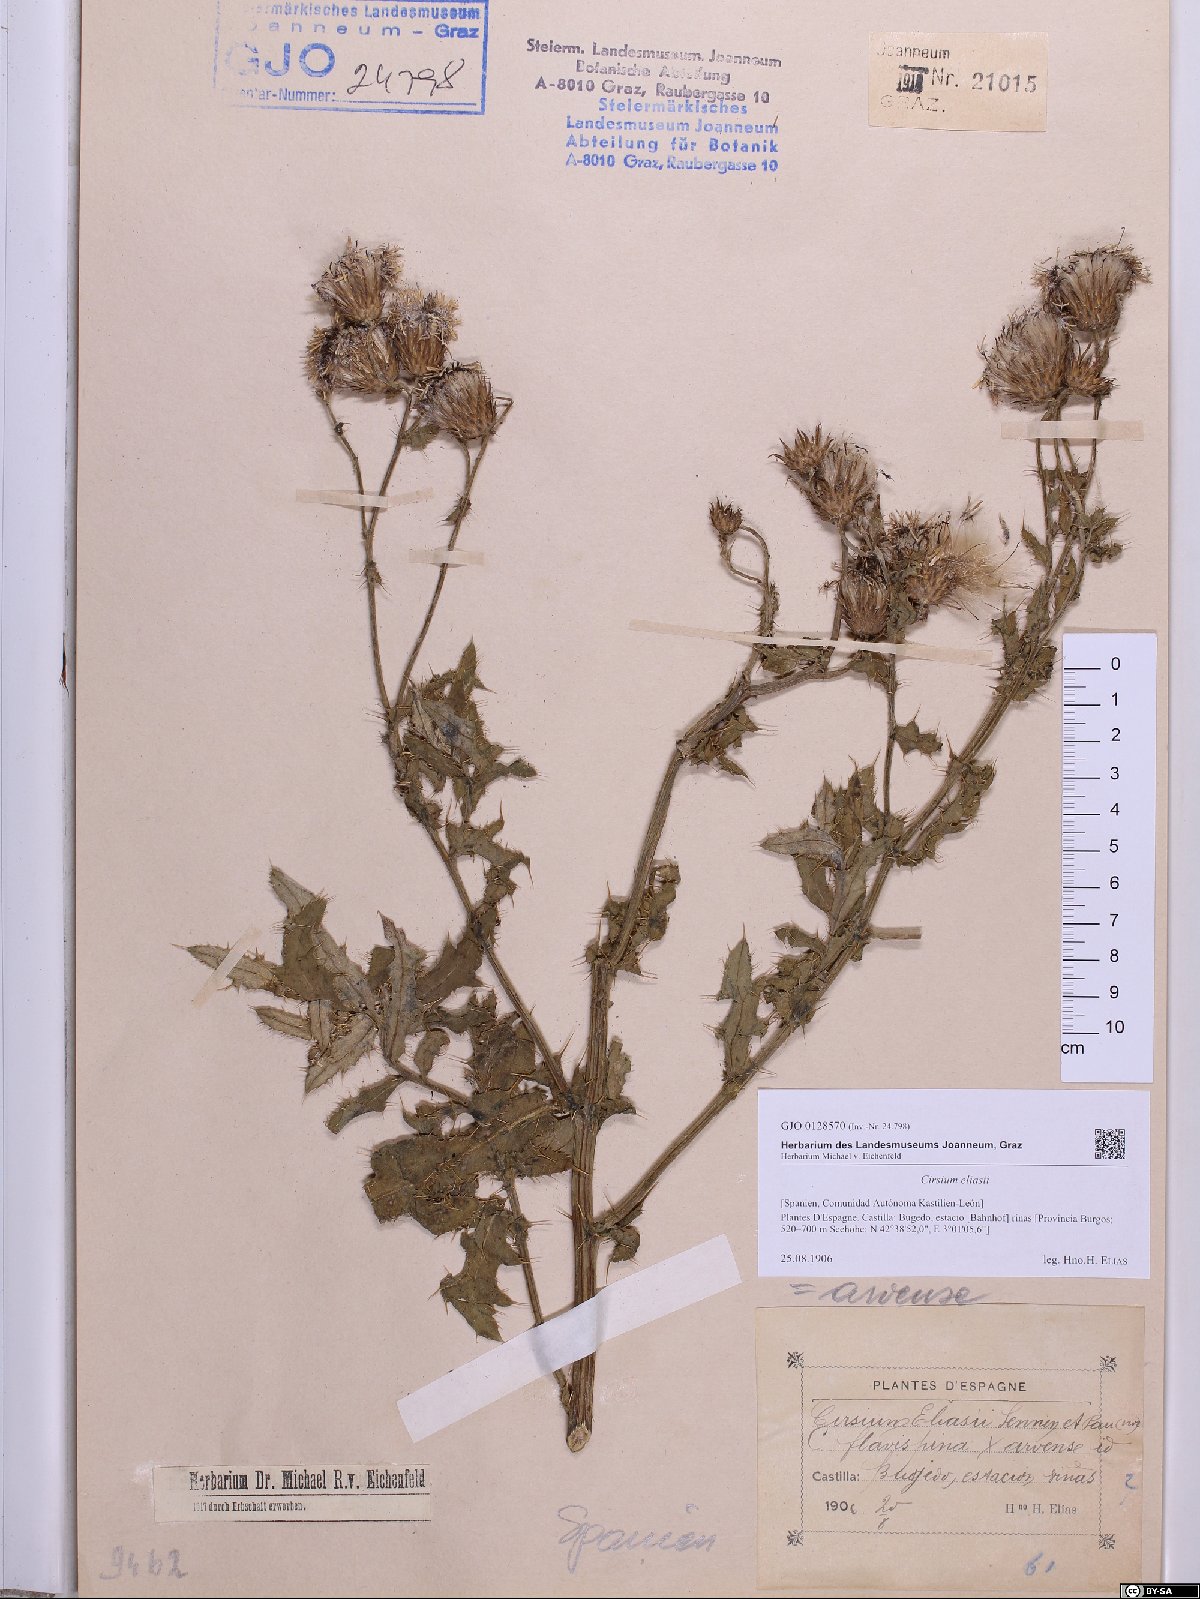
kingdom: Plantae
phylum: Tracheophyta
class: Magnoliopsida
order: Asterales
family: Asteraceae
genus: Cirsium
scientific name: Cirsium eliasii
